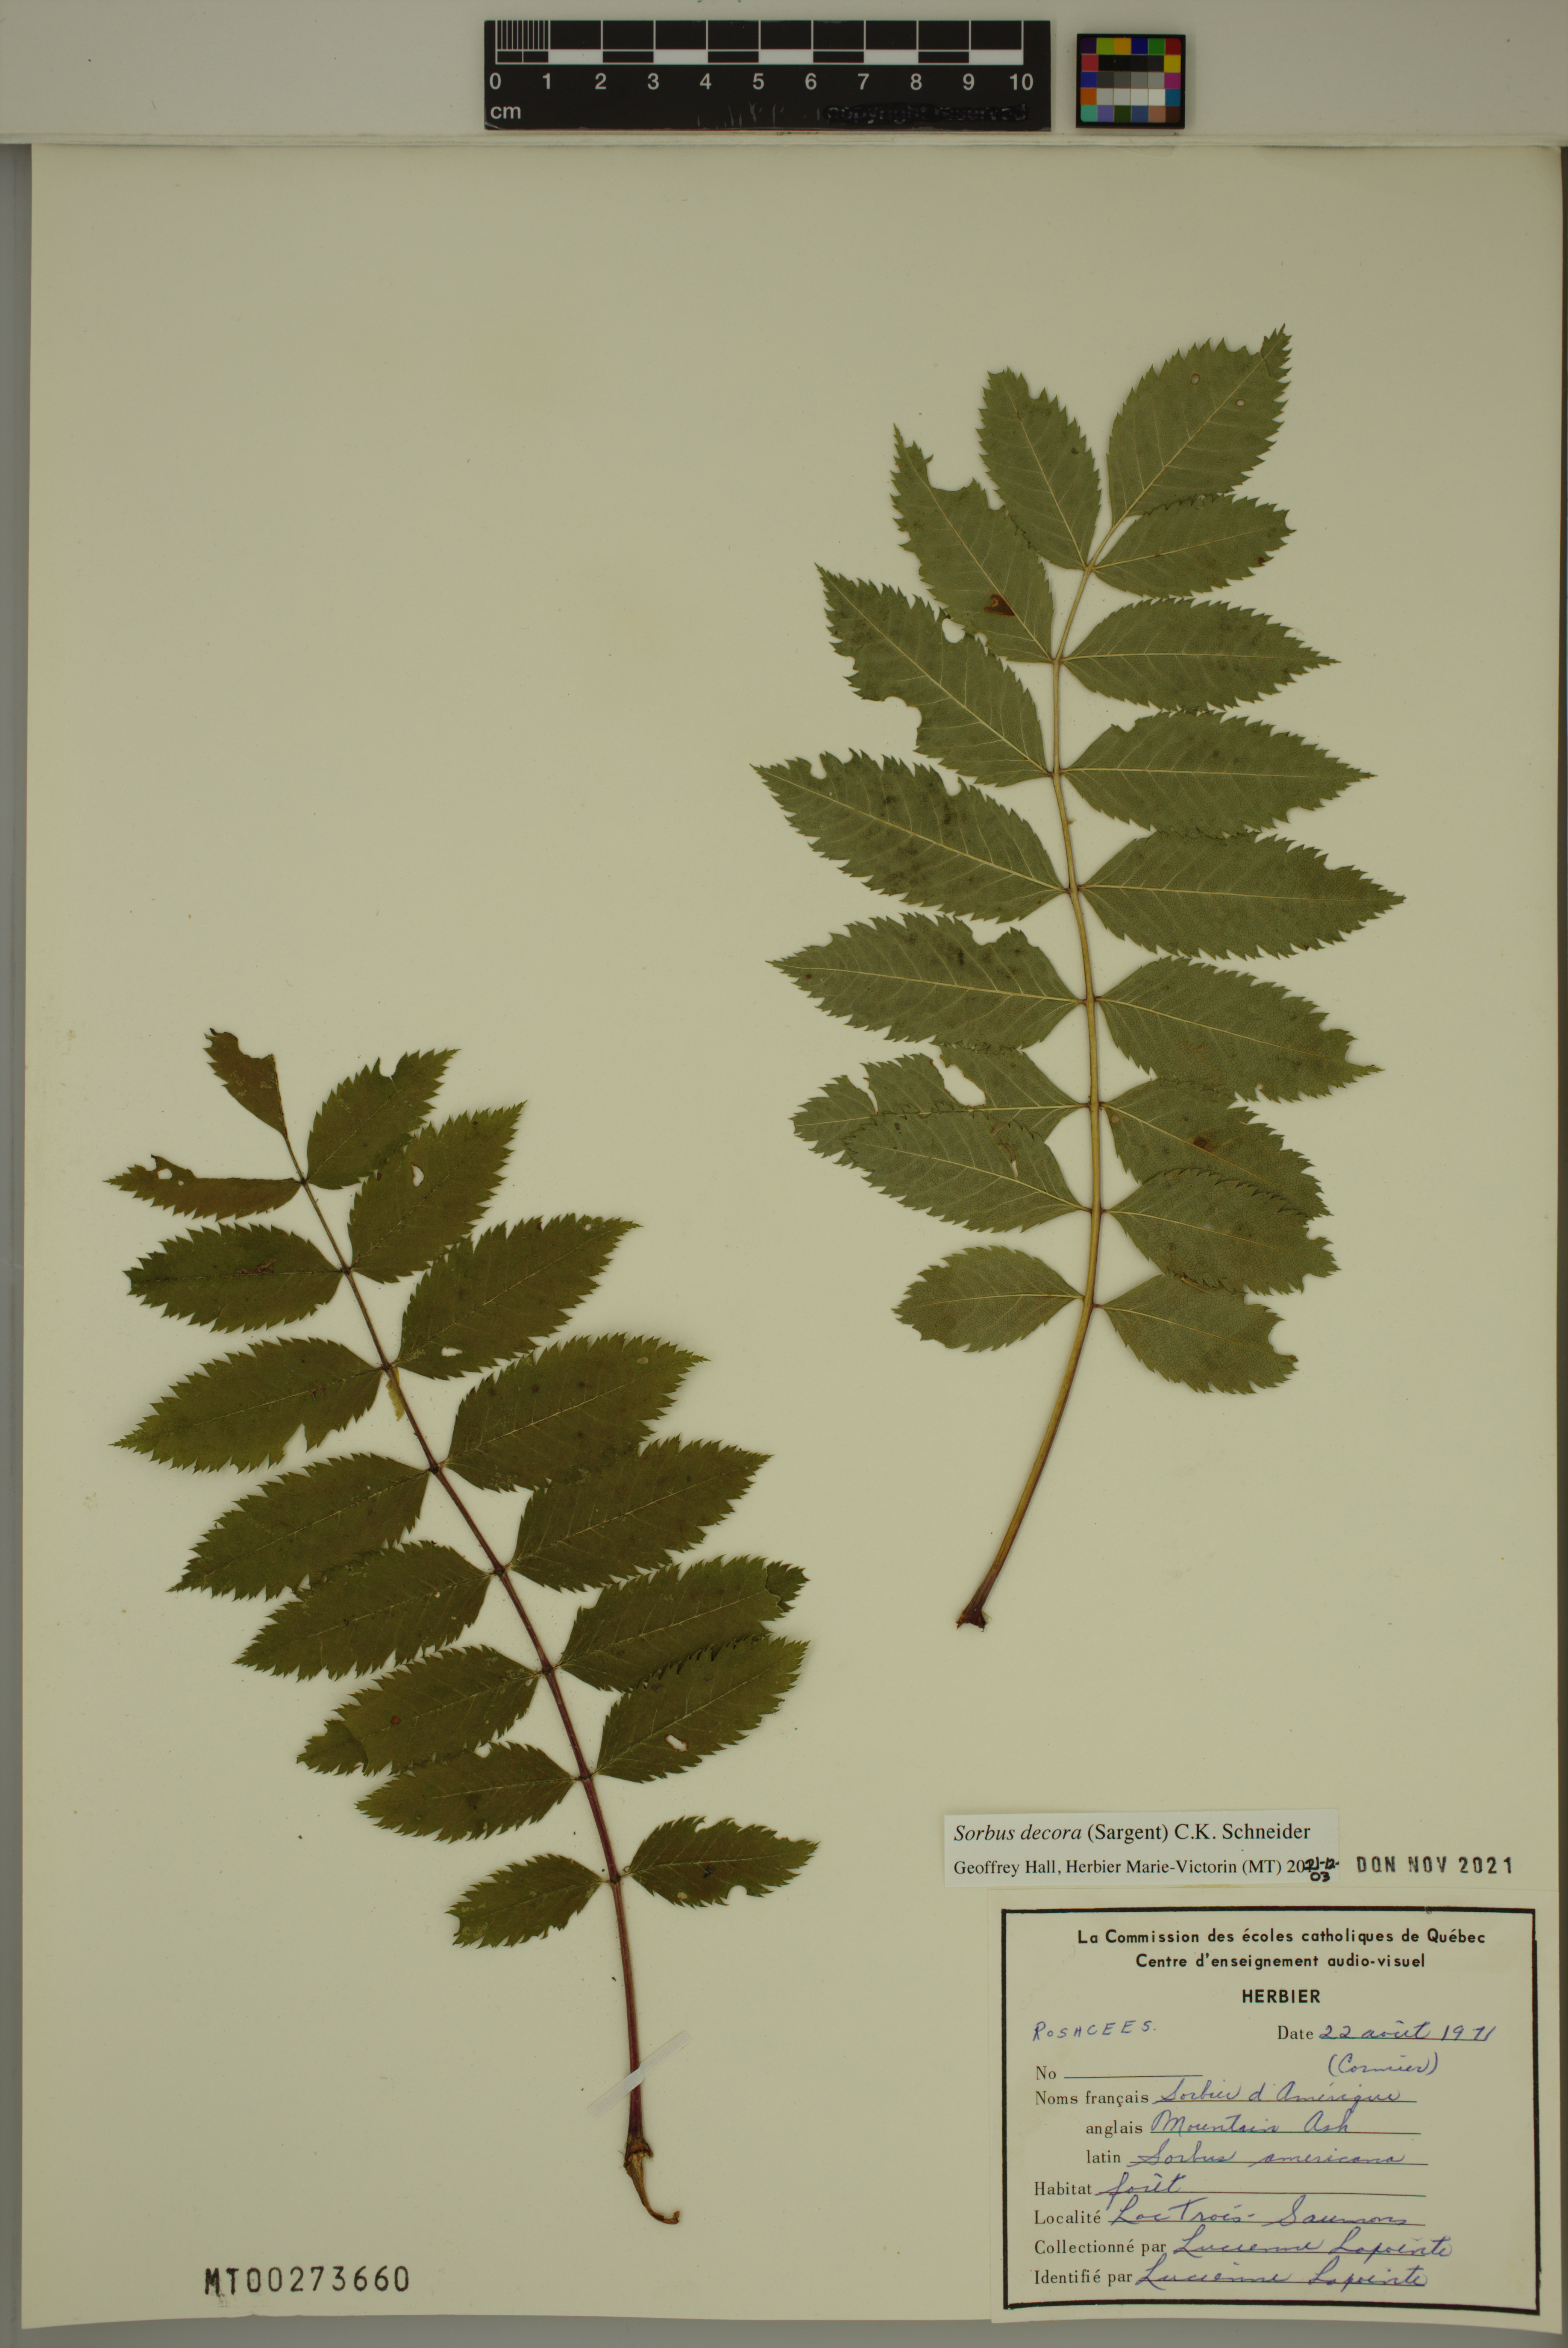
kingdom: Plantae
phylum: Tracheophyta
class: Magnoliopsida
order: Rosales
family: Rosaceae
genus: Sorbus
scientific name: Sorbus decora
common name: Northern mountain-ash
